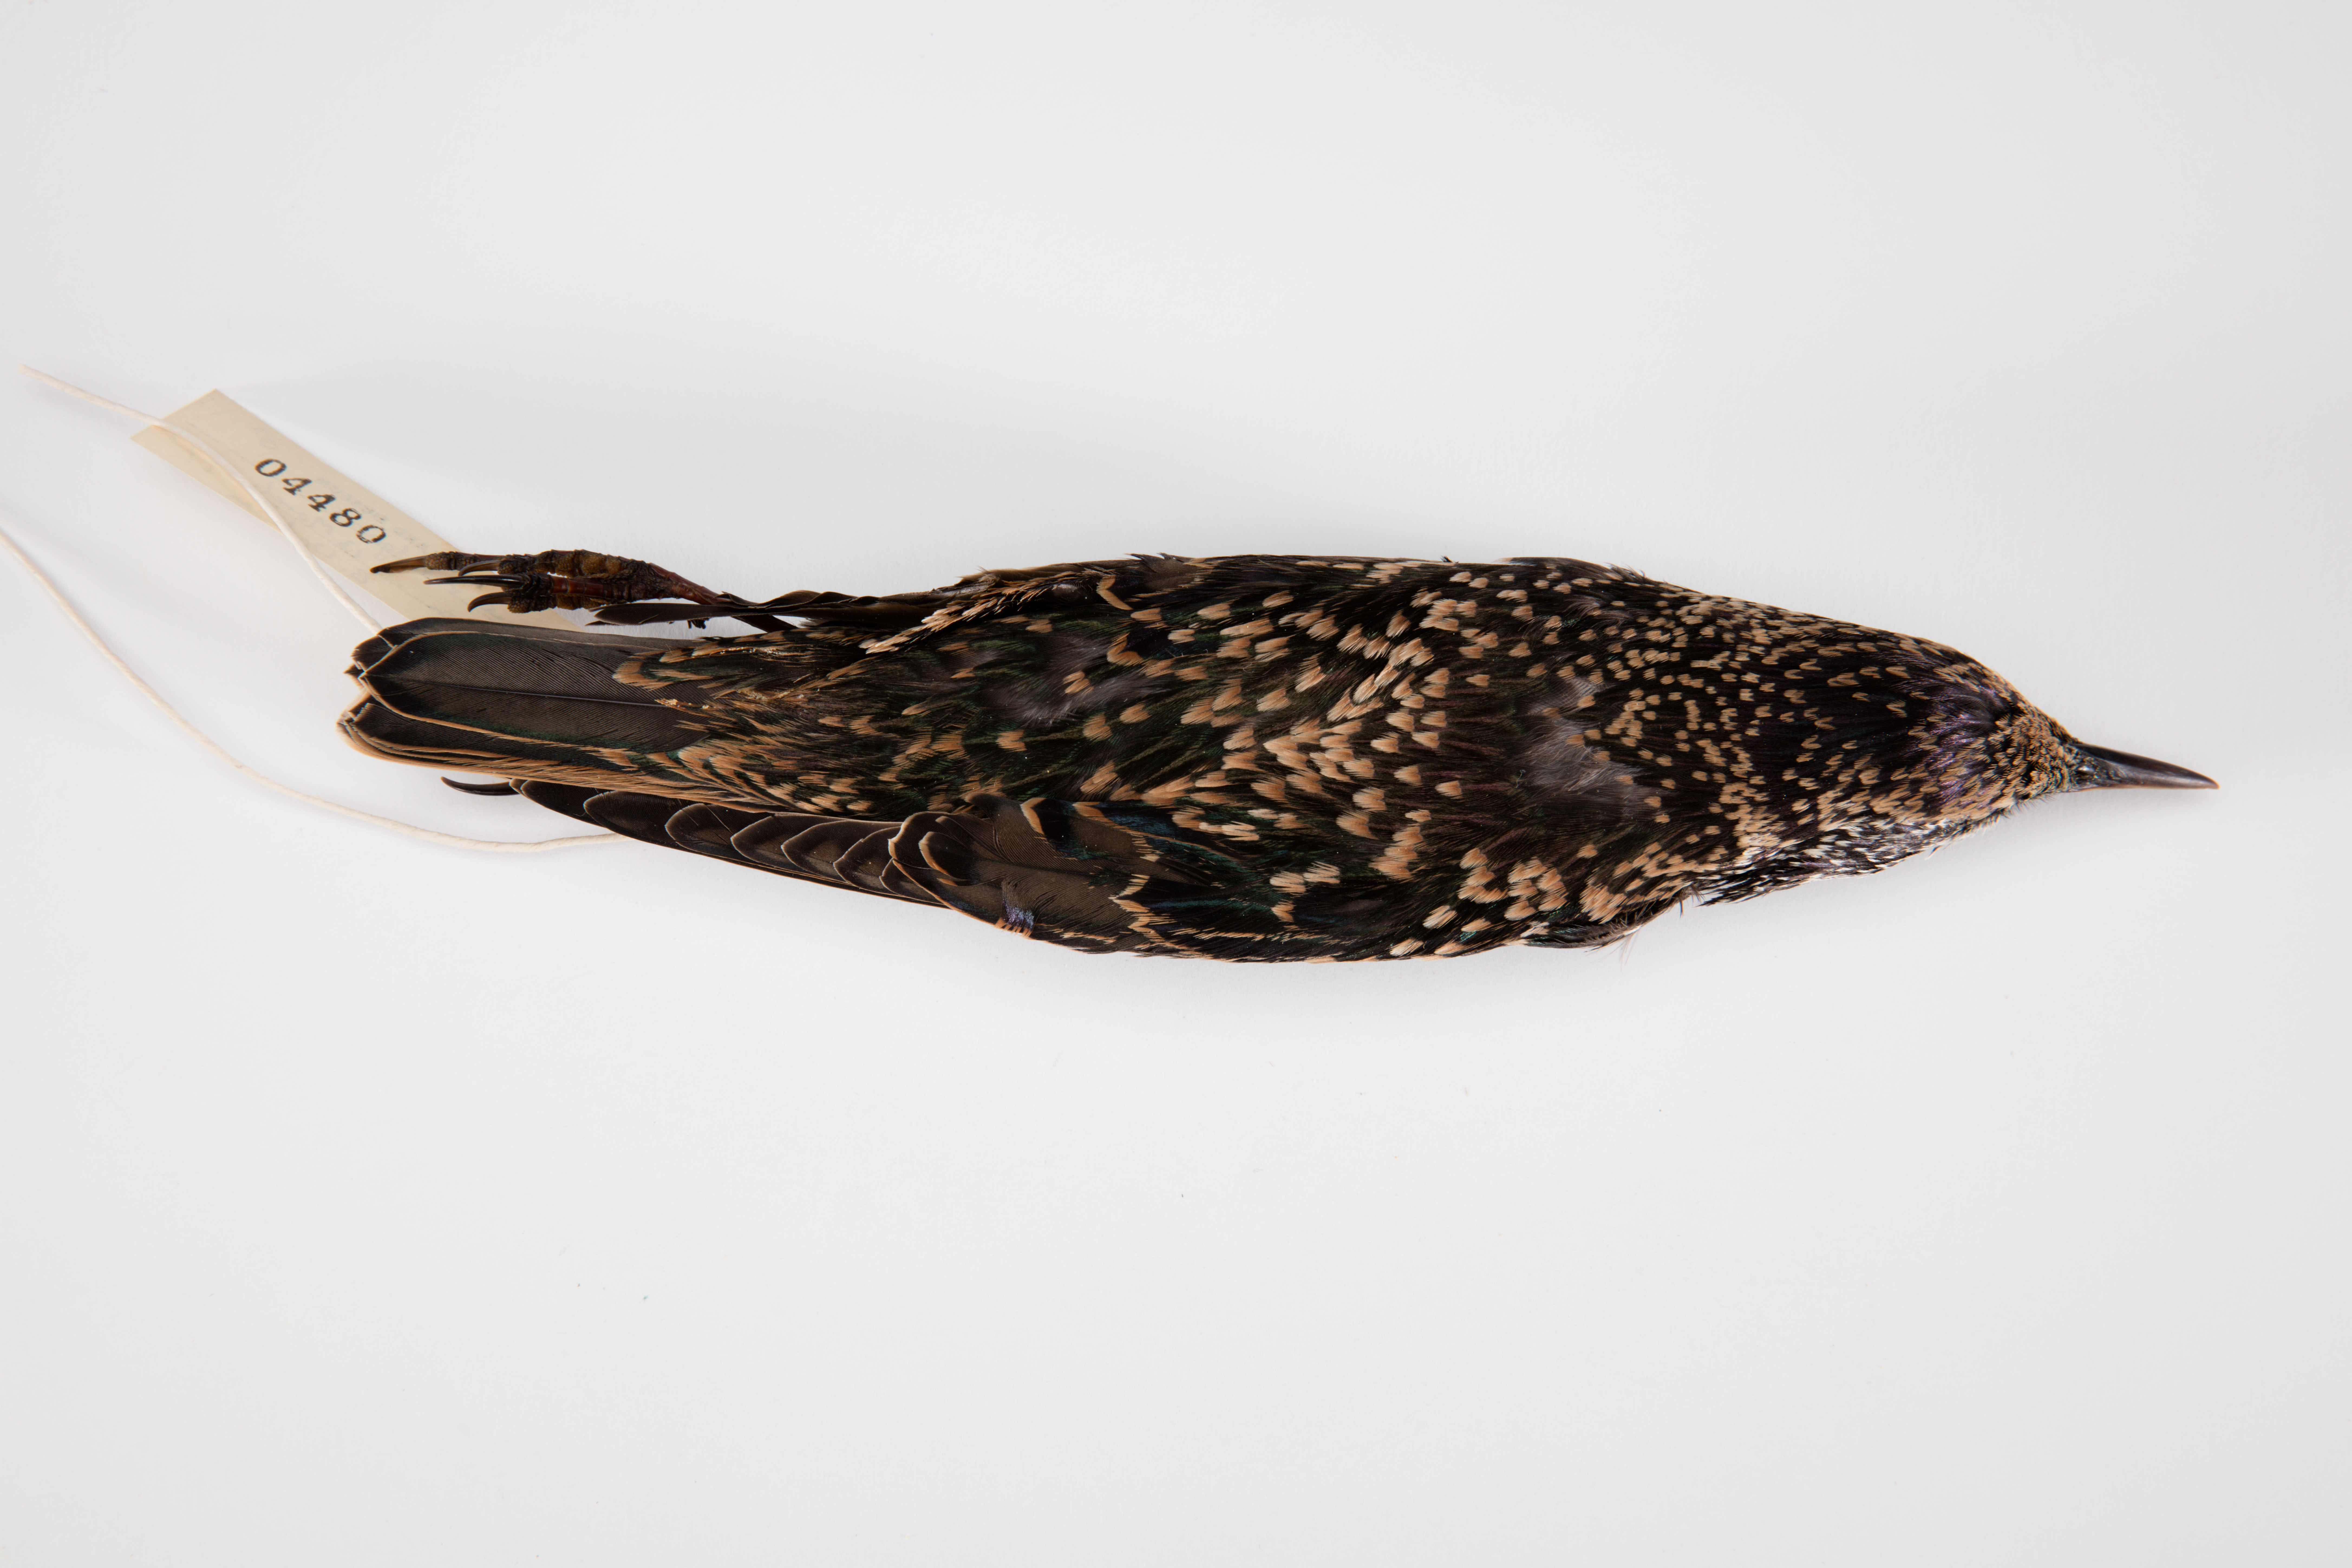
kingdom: Animalia
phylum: Chordata
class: Aves
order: Passeriformes
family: Sturnidae
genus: Sturnus
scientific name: Sturnus vulgaris
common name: Common starling
